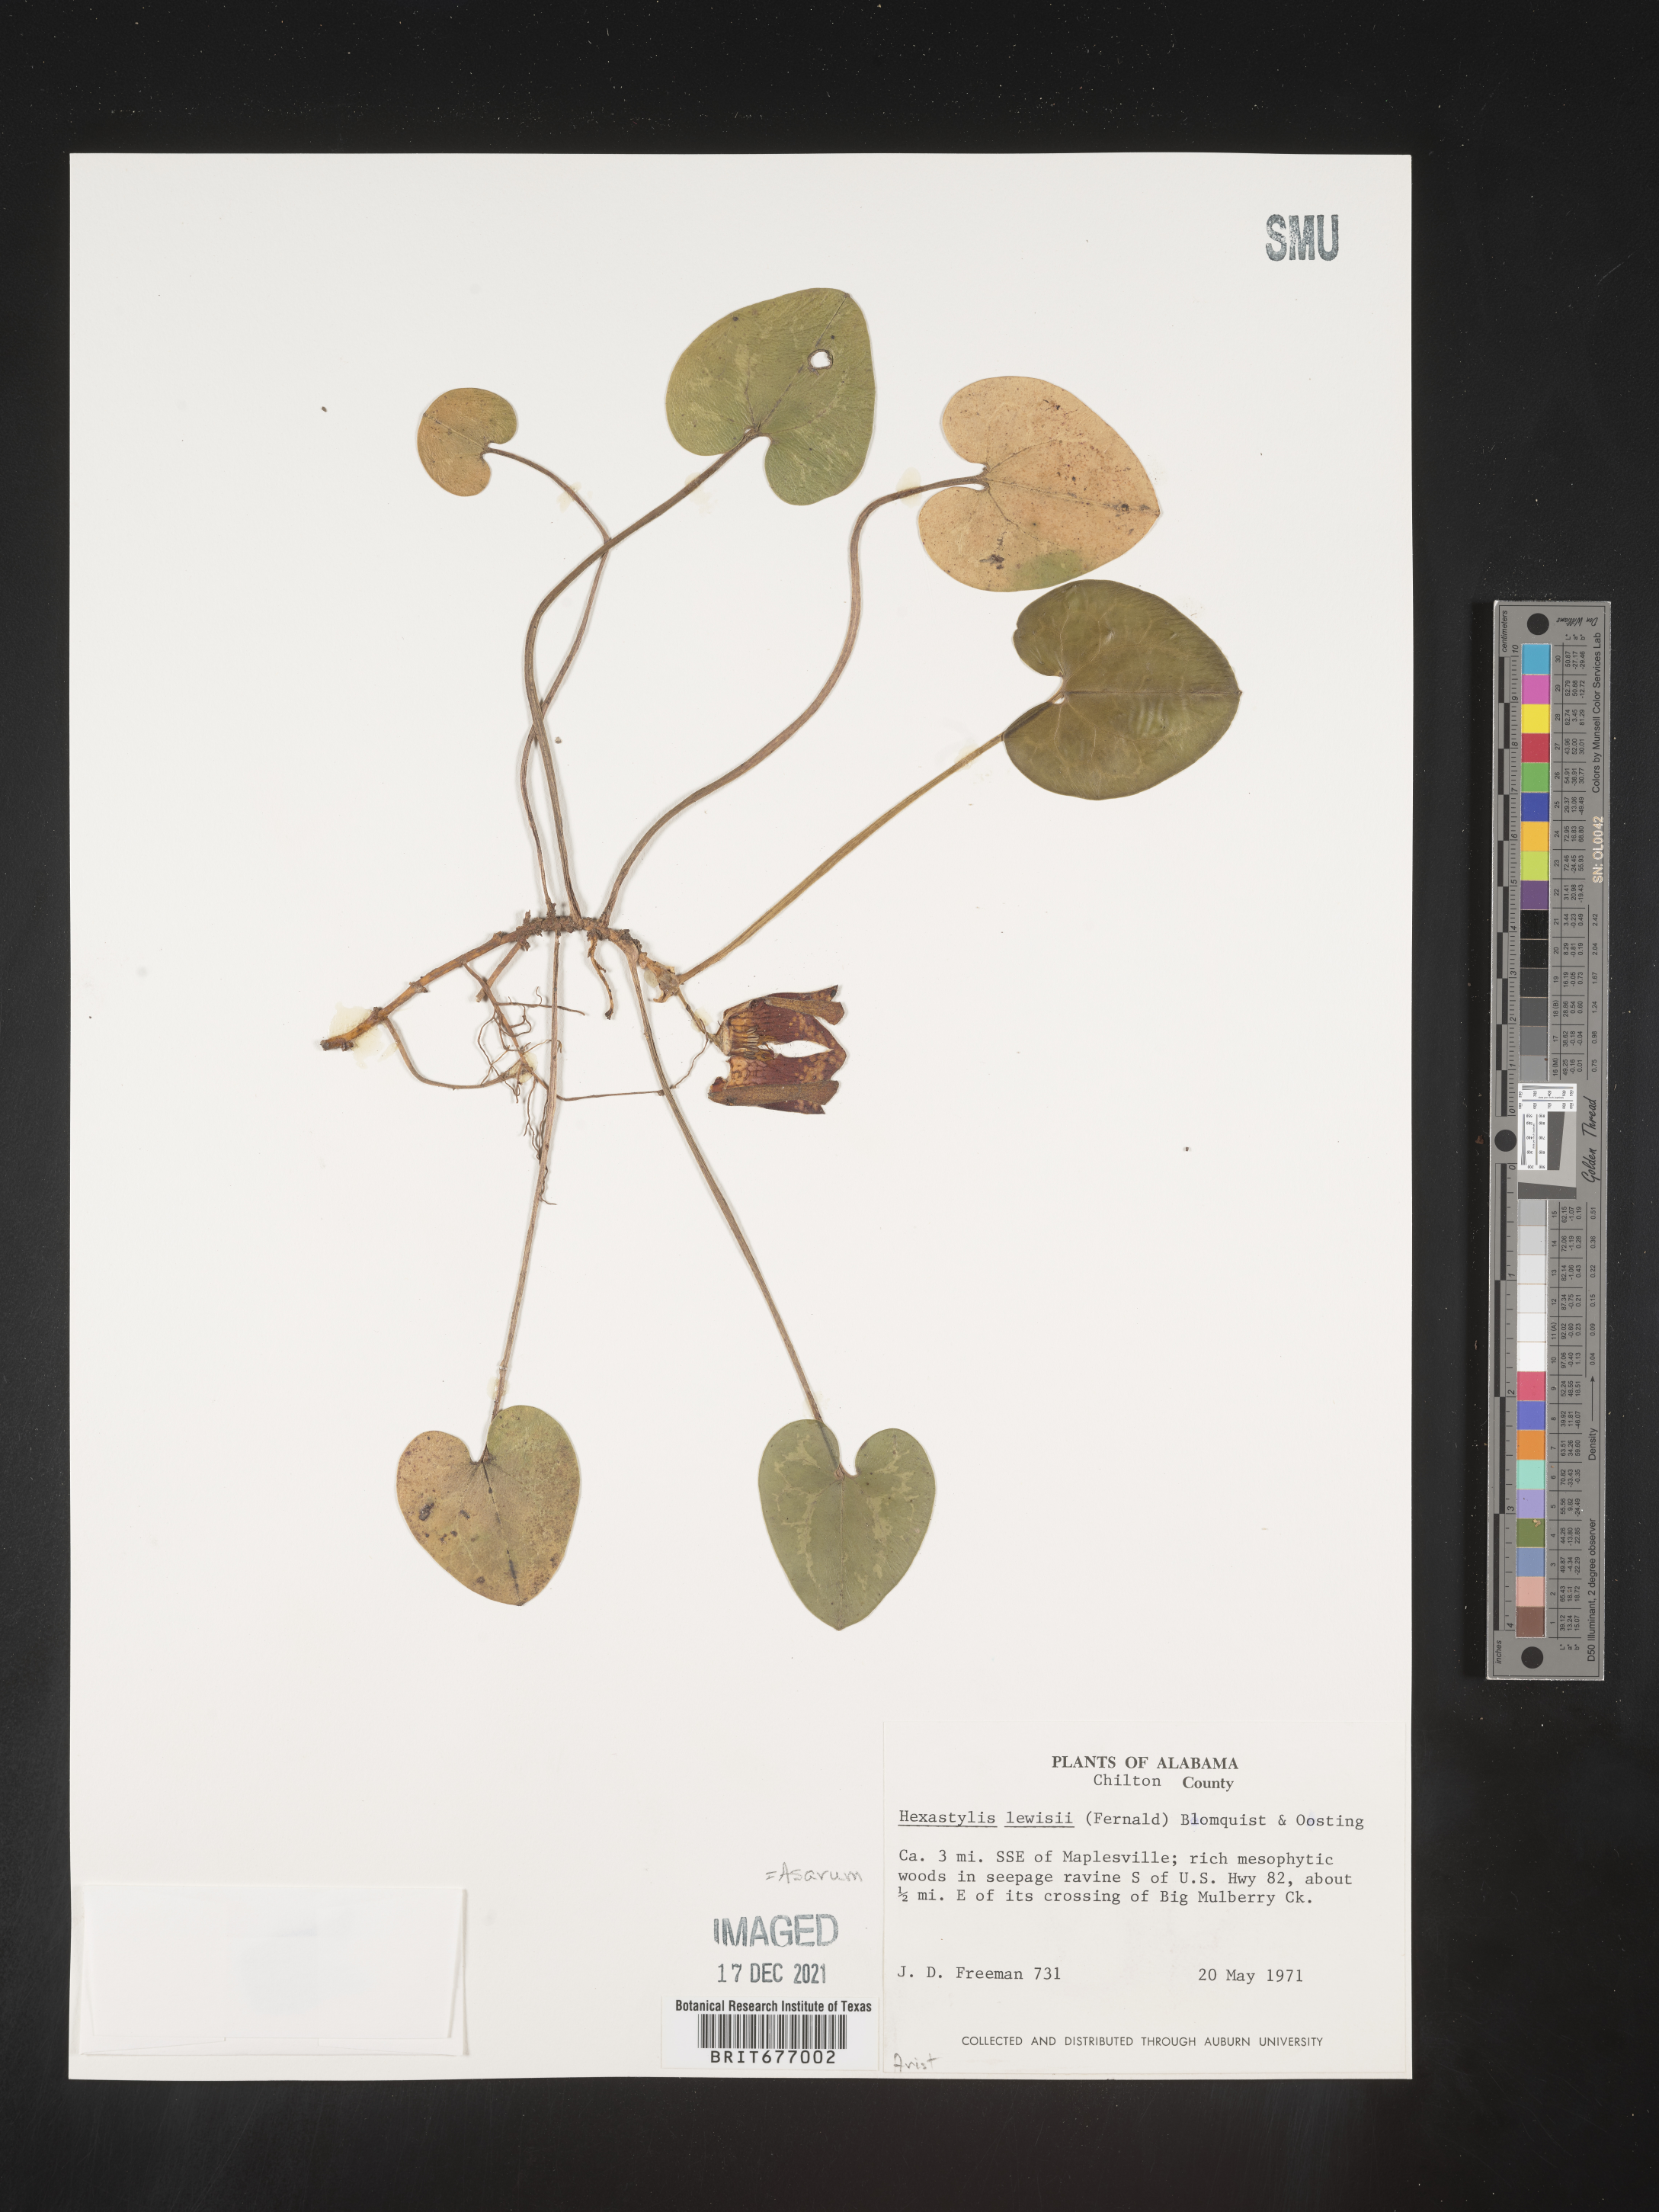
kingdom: Plantae
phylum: Tracheophyta
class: Magnoliopsida
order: Piperales
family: Aristolochiaceae
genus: Asarum
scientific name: Asarum
